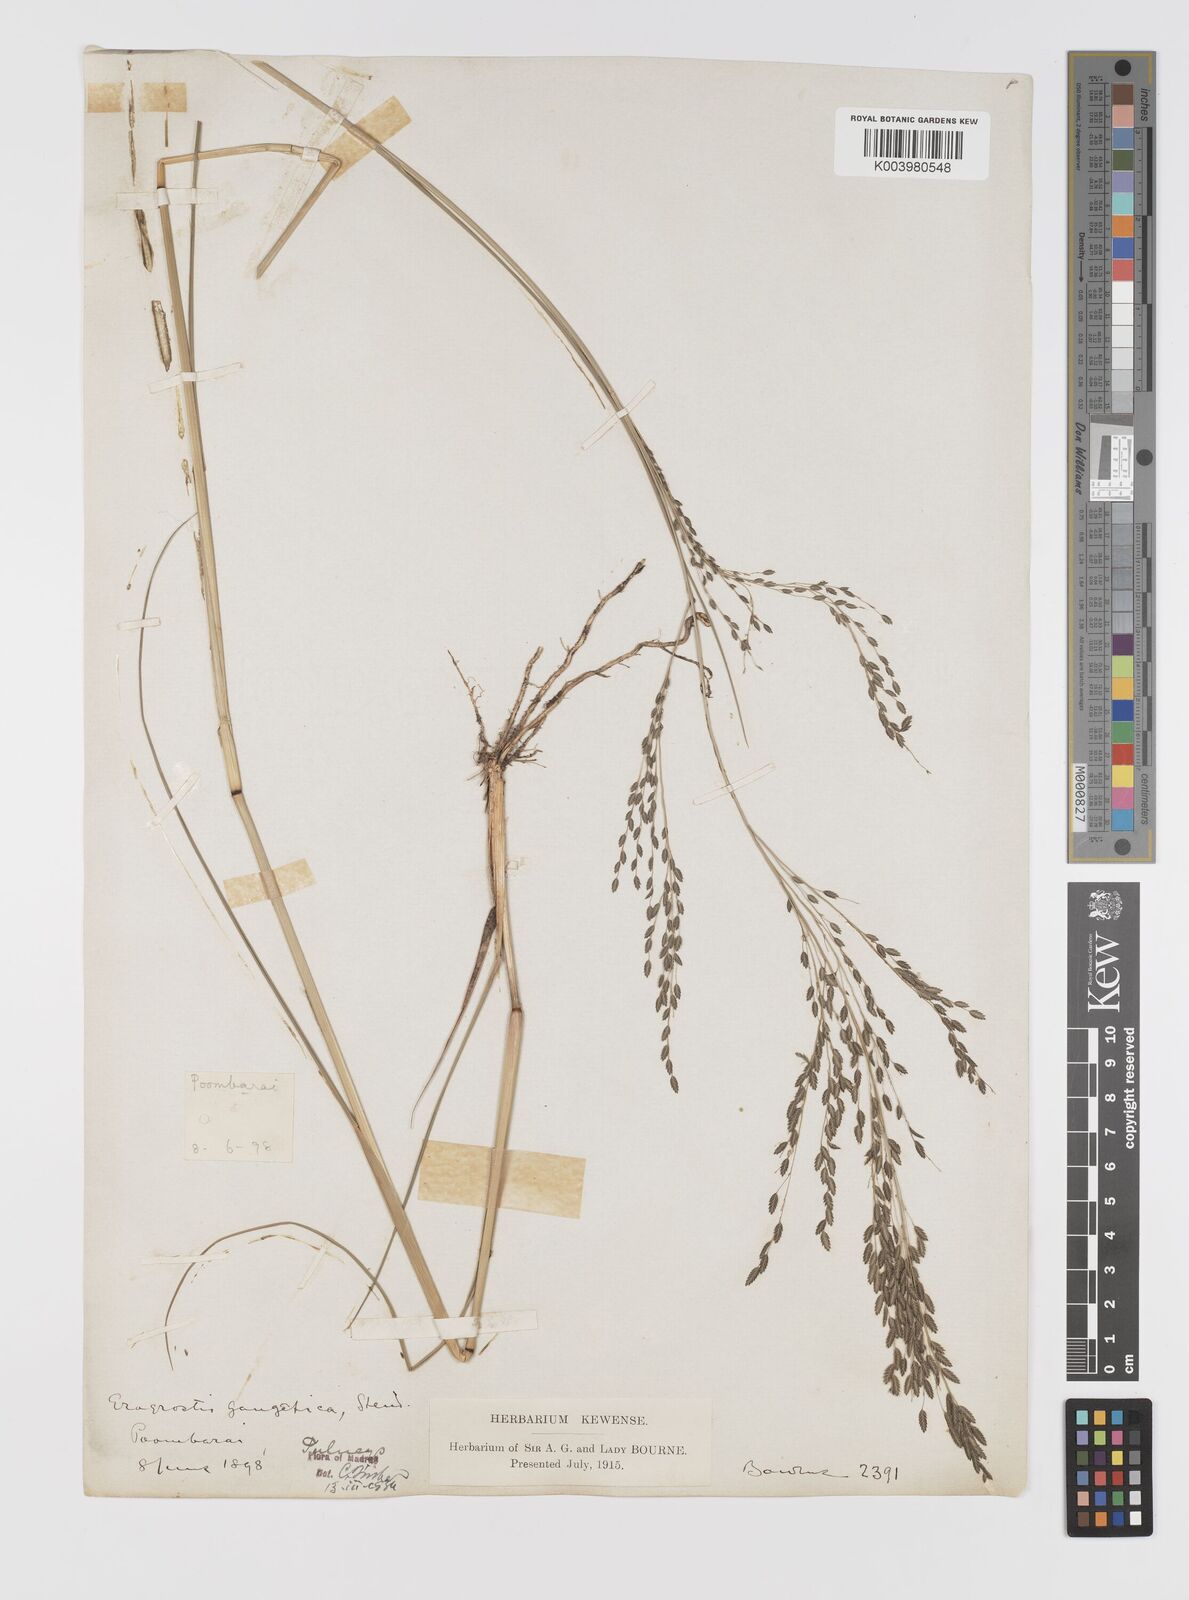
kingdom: Plantae
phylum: Tracheophyta
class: Liliopsida
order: Poales
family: Poaceae
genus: Eragrostis
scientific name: Eragrostis
